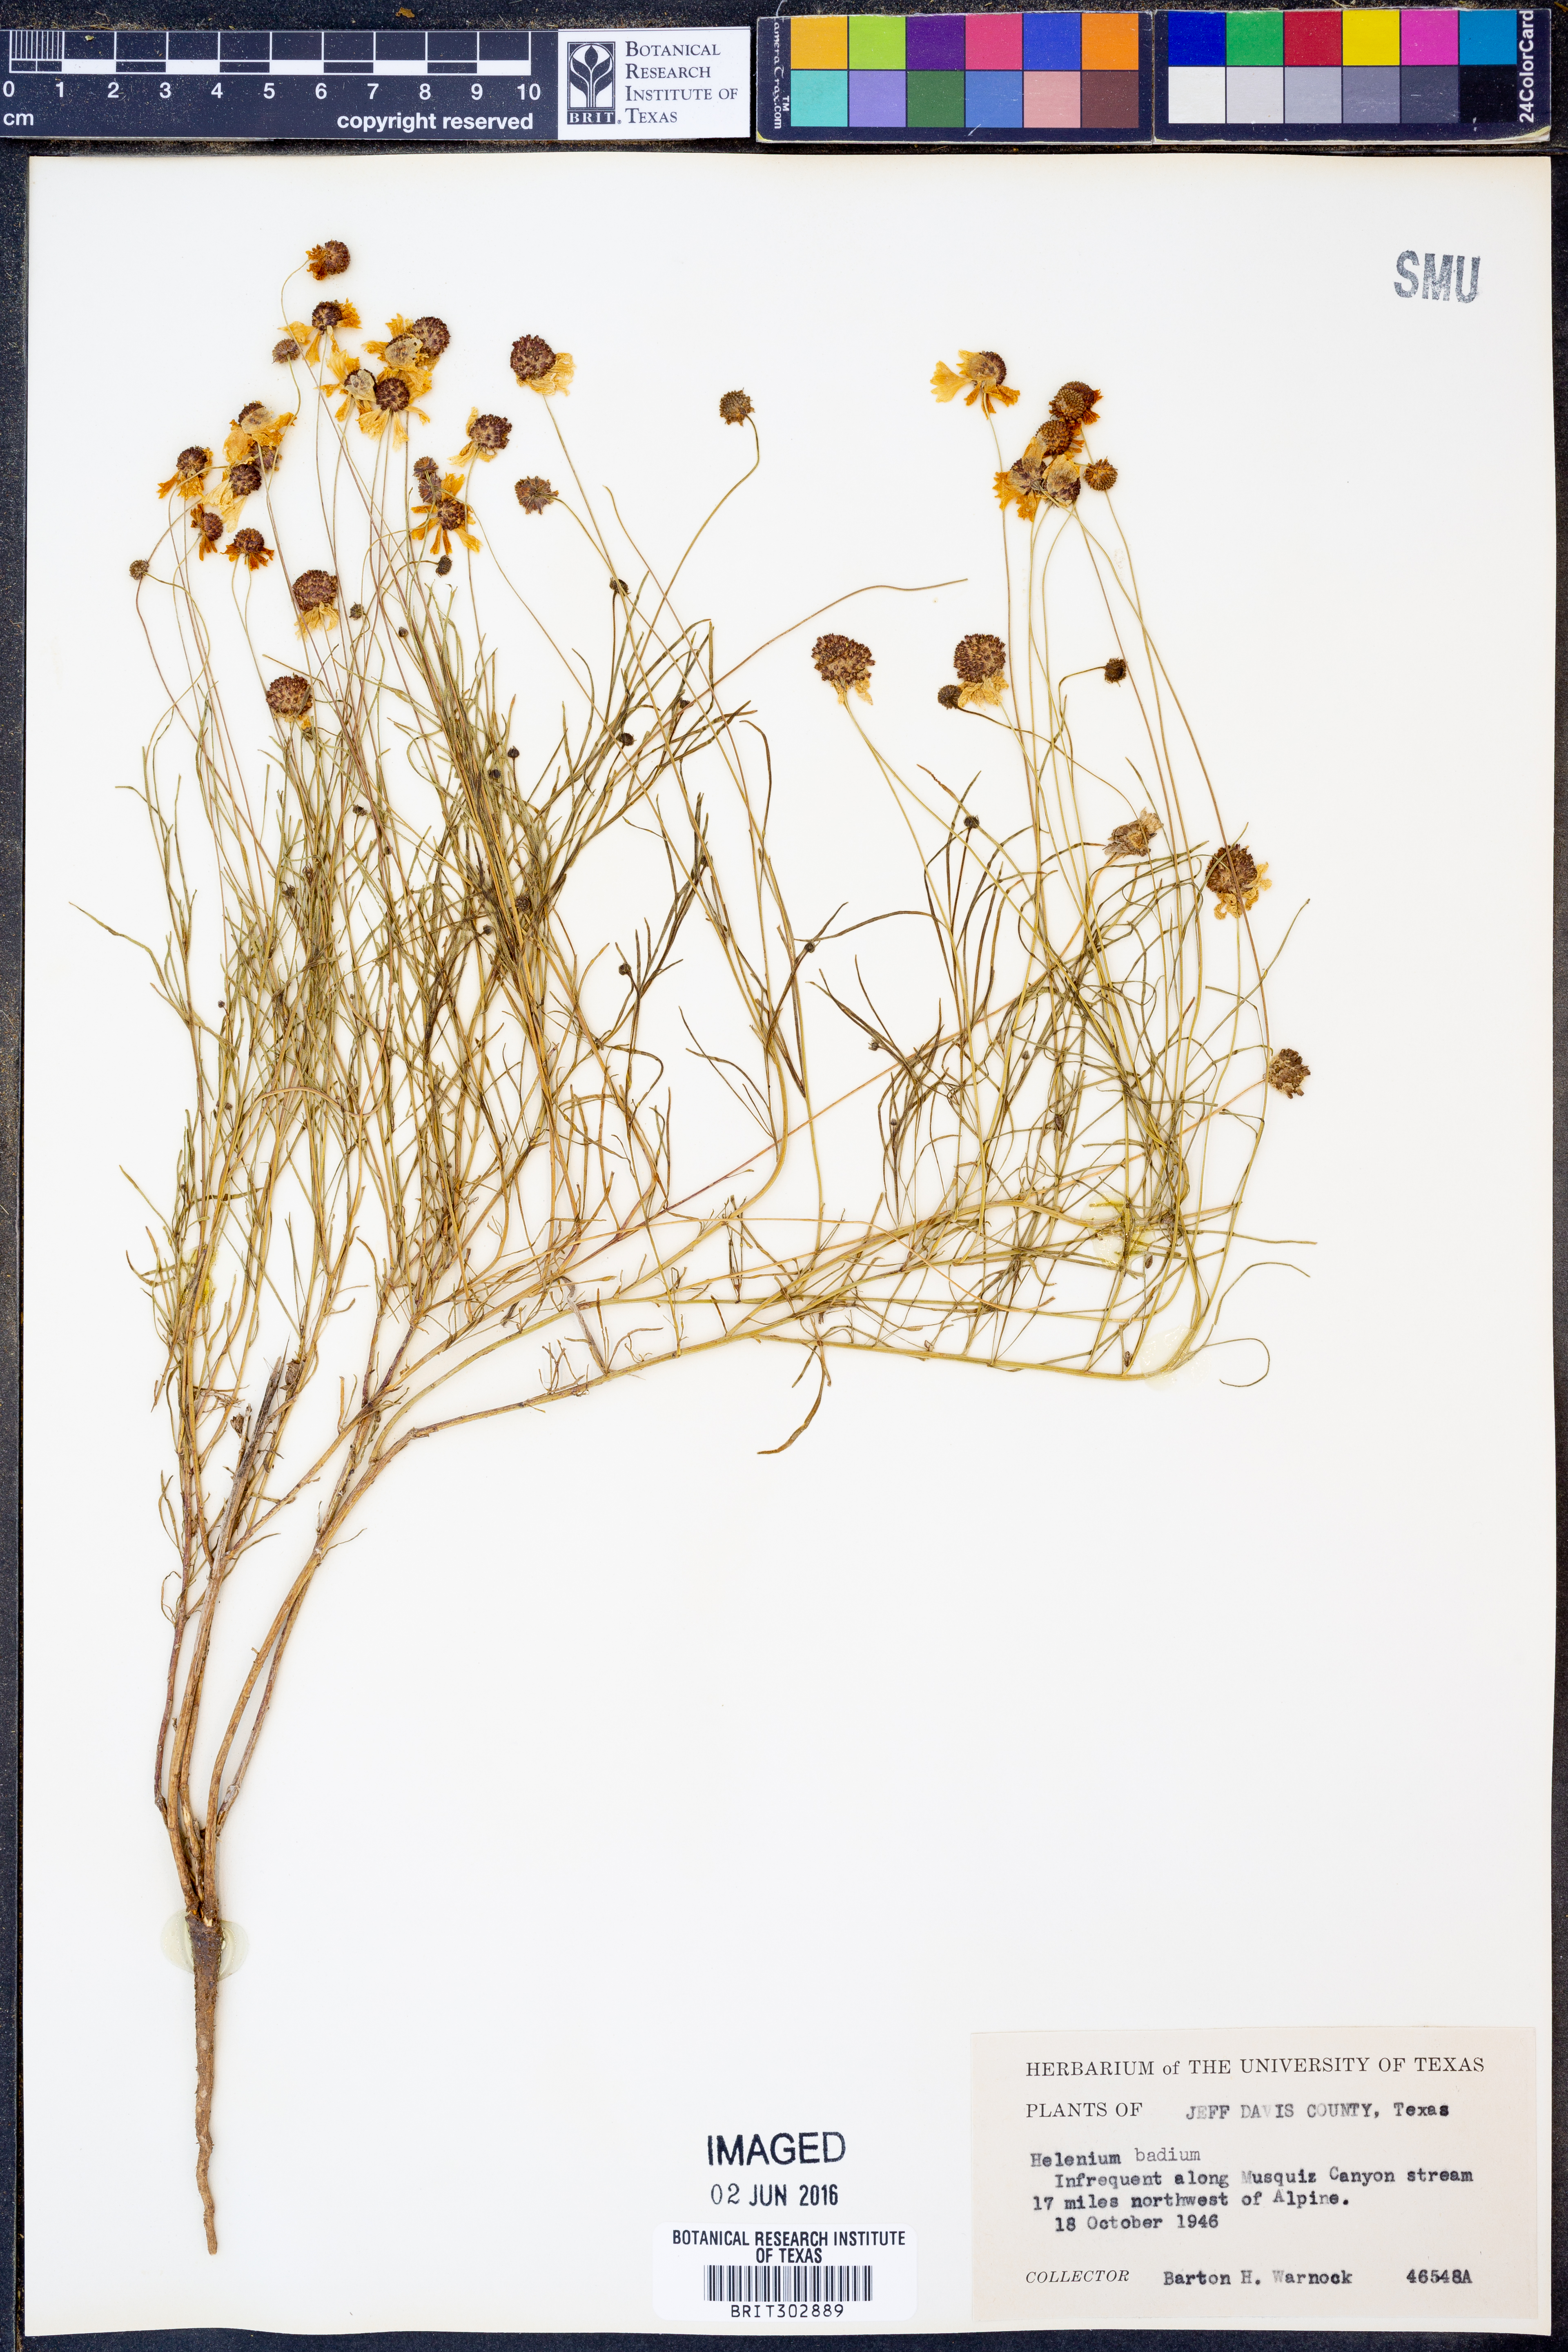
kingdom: Plantae
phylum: Tracheophyta
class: Magnoliopsida
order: Asterales
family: Asteraceae
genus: Helenium
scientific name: Helenium amarum
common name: Bitter sneezeweed
